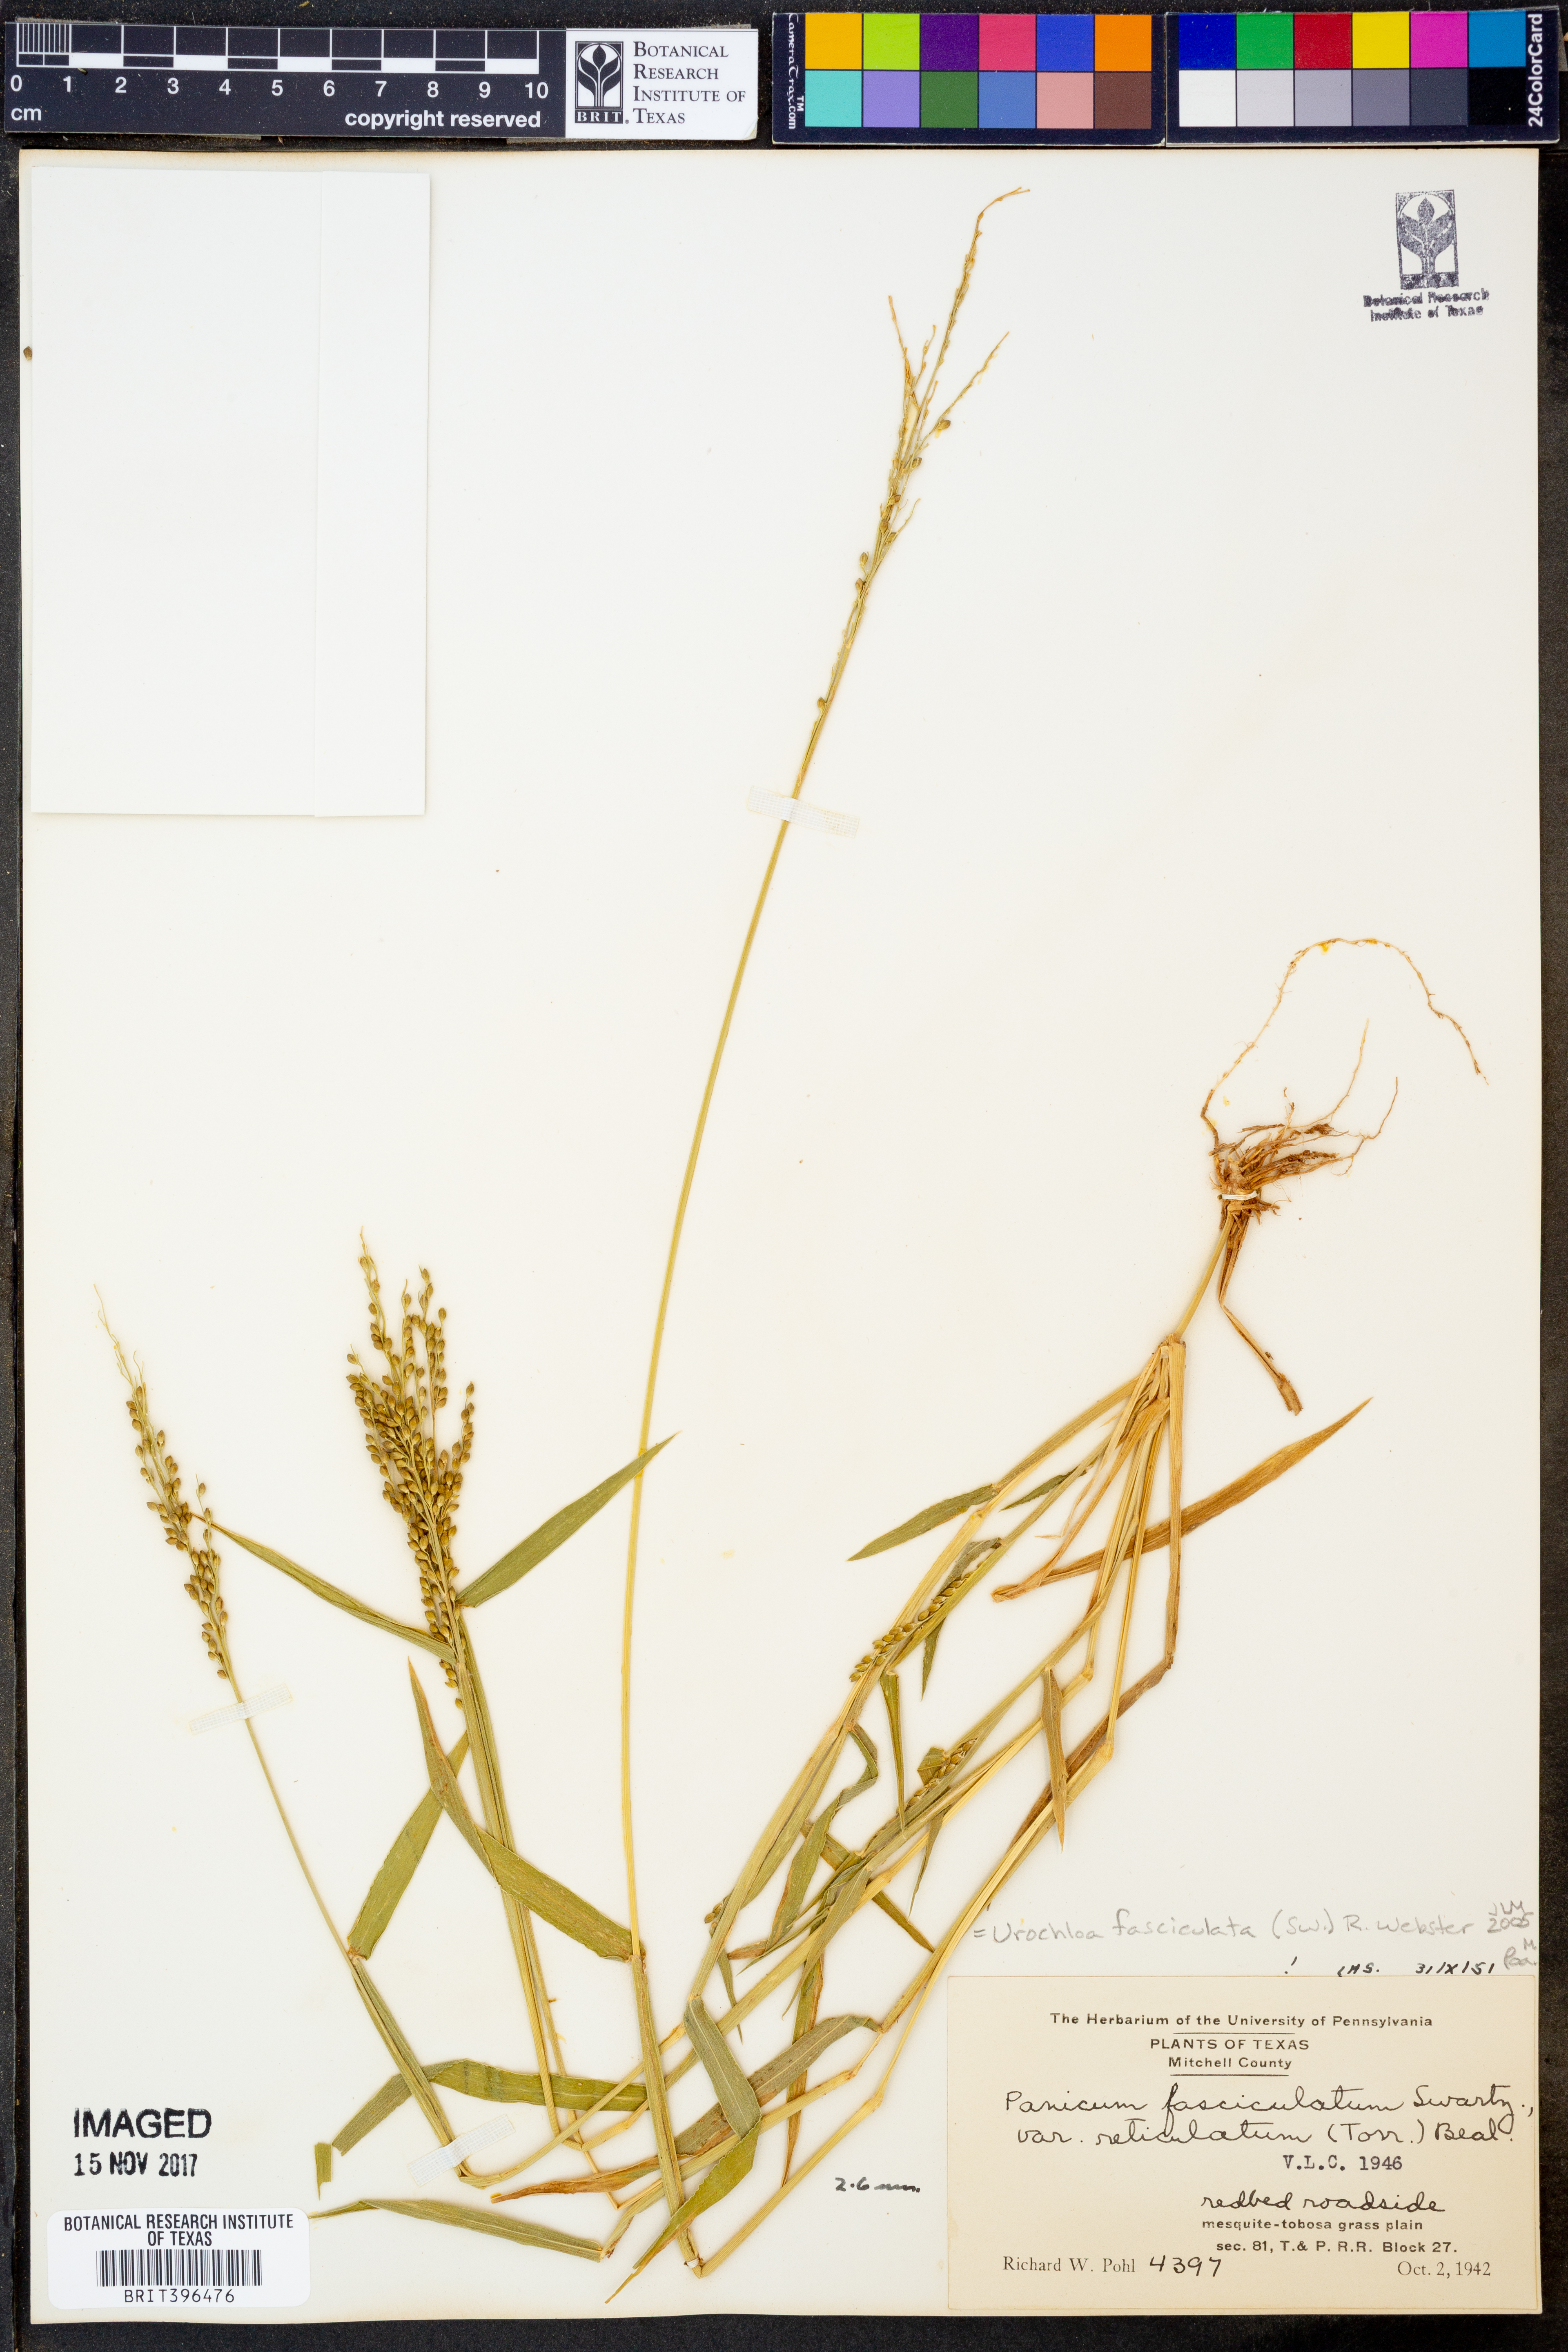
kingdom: Plantae
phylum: Tracheophyta
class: Liliopsida
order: Poales
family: Poaceae
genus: Urochloa
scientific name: Urochloa fusca
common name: Browntop signal grass
